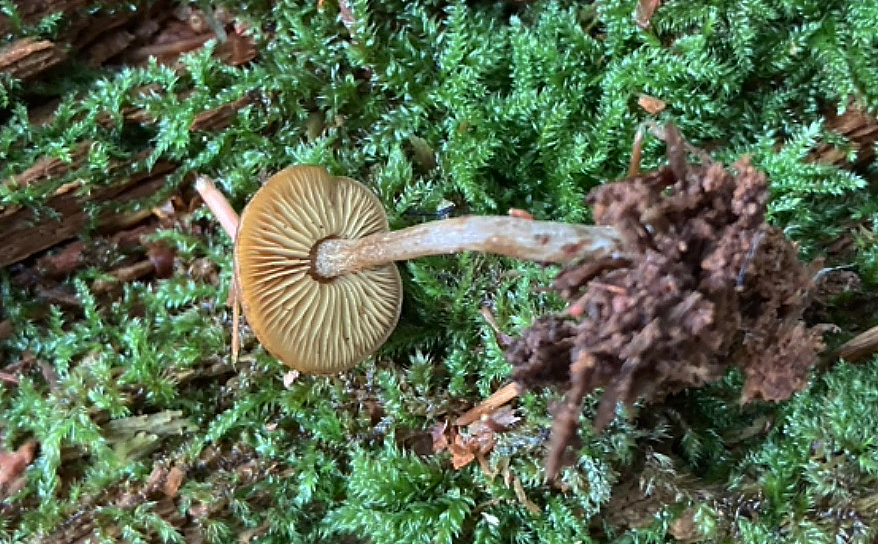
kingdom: Fungi
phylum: Basidiomycota
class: Agaricomycetes
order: Agaricales
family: Callistosporiaceae
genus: Callistosporium
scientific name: Callistosporium pinicola
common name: småsporet ravhat
